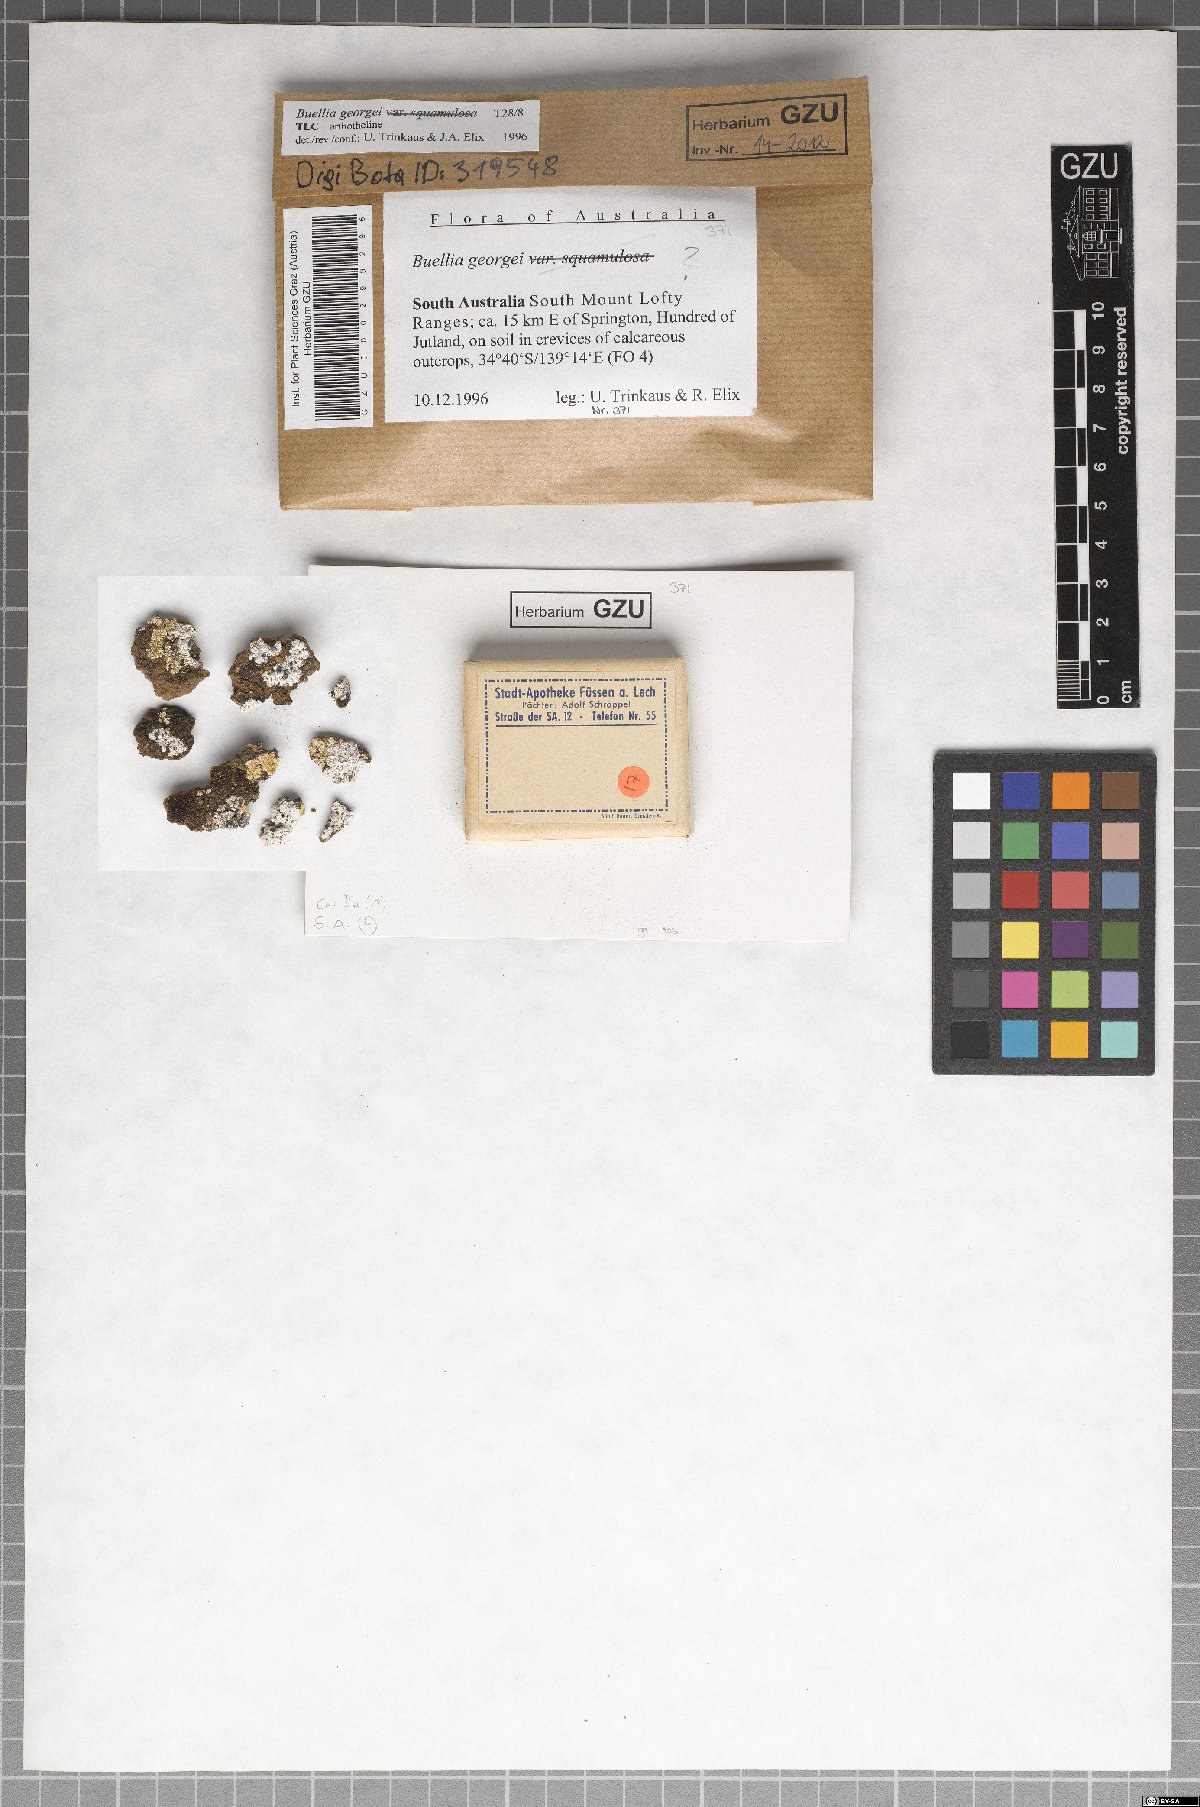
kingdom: Fungi
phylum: Ascomycota
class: Lecanoromycetes
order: Caliciales
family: Caliciaceae
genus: Buellia
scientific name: Buellia georgei
